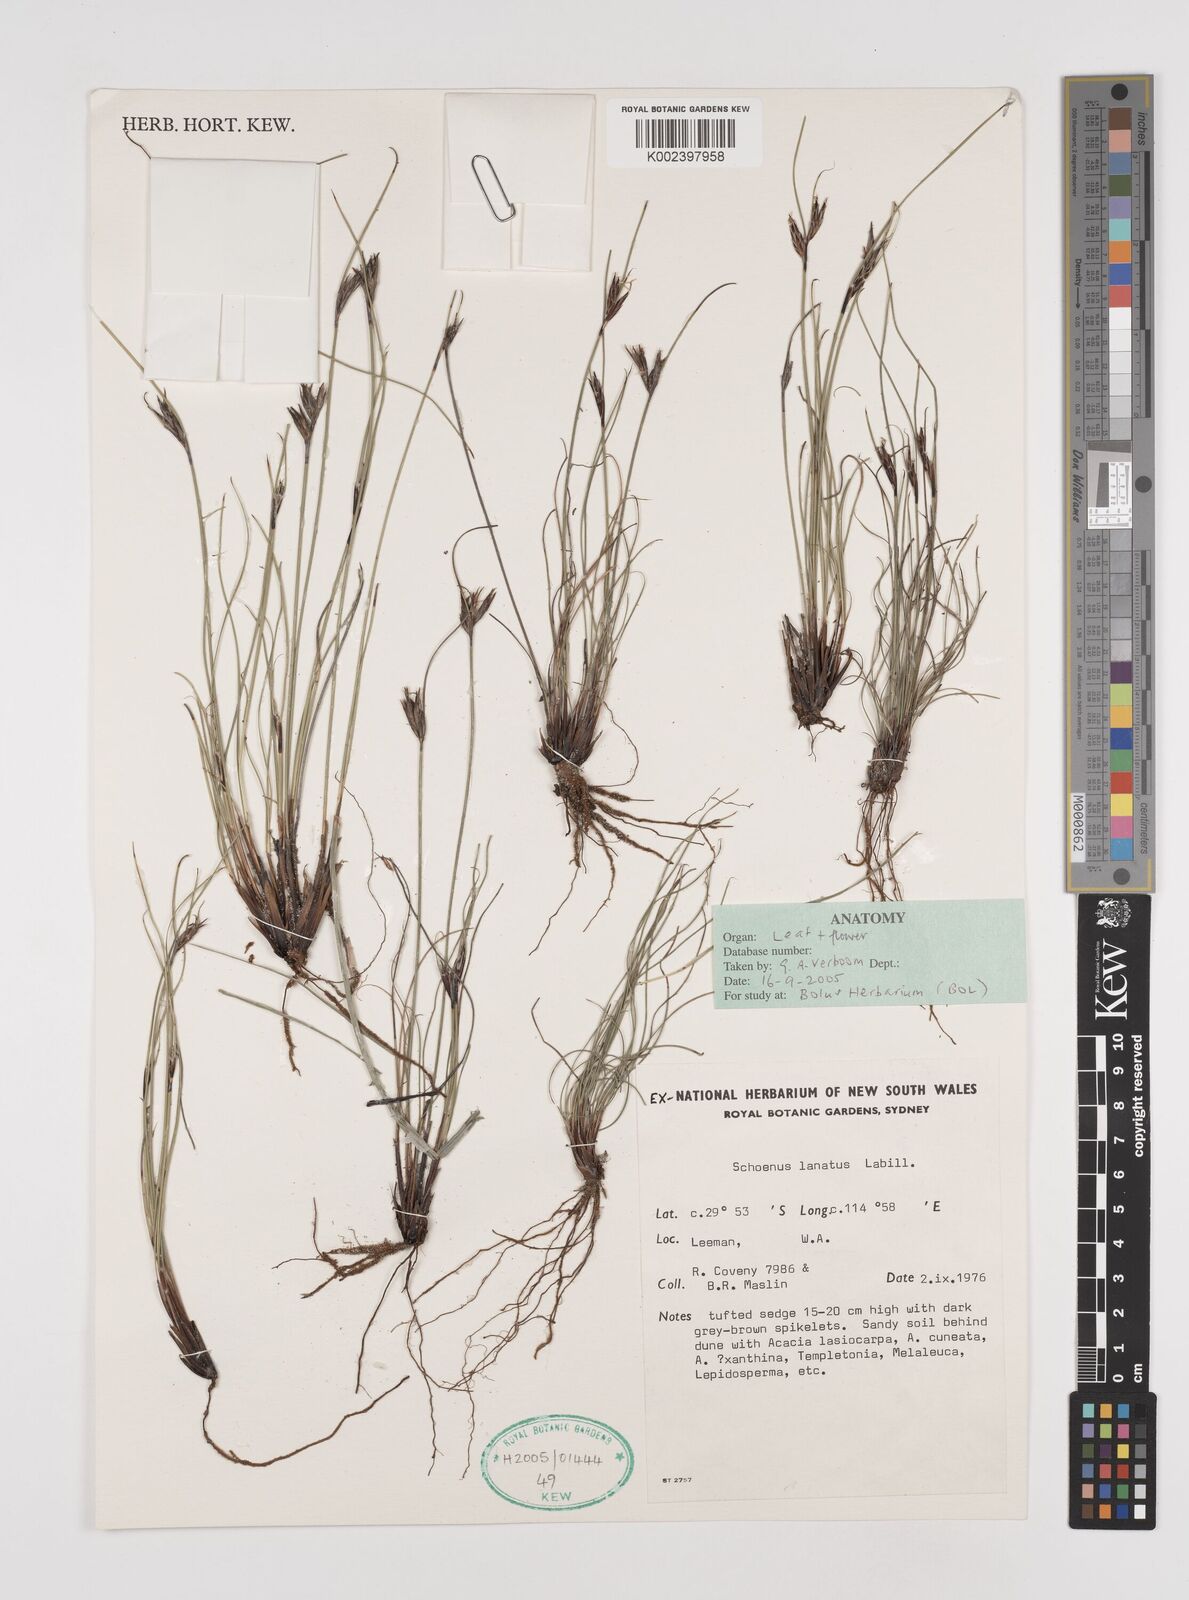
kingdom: Plantae
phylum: Tracheophyta
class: Liliopsida
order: Poales
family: Cyperaceae
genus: Schoenus
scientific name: Schoenus lanatus
